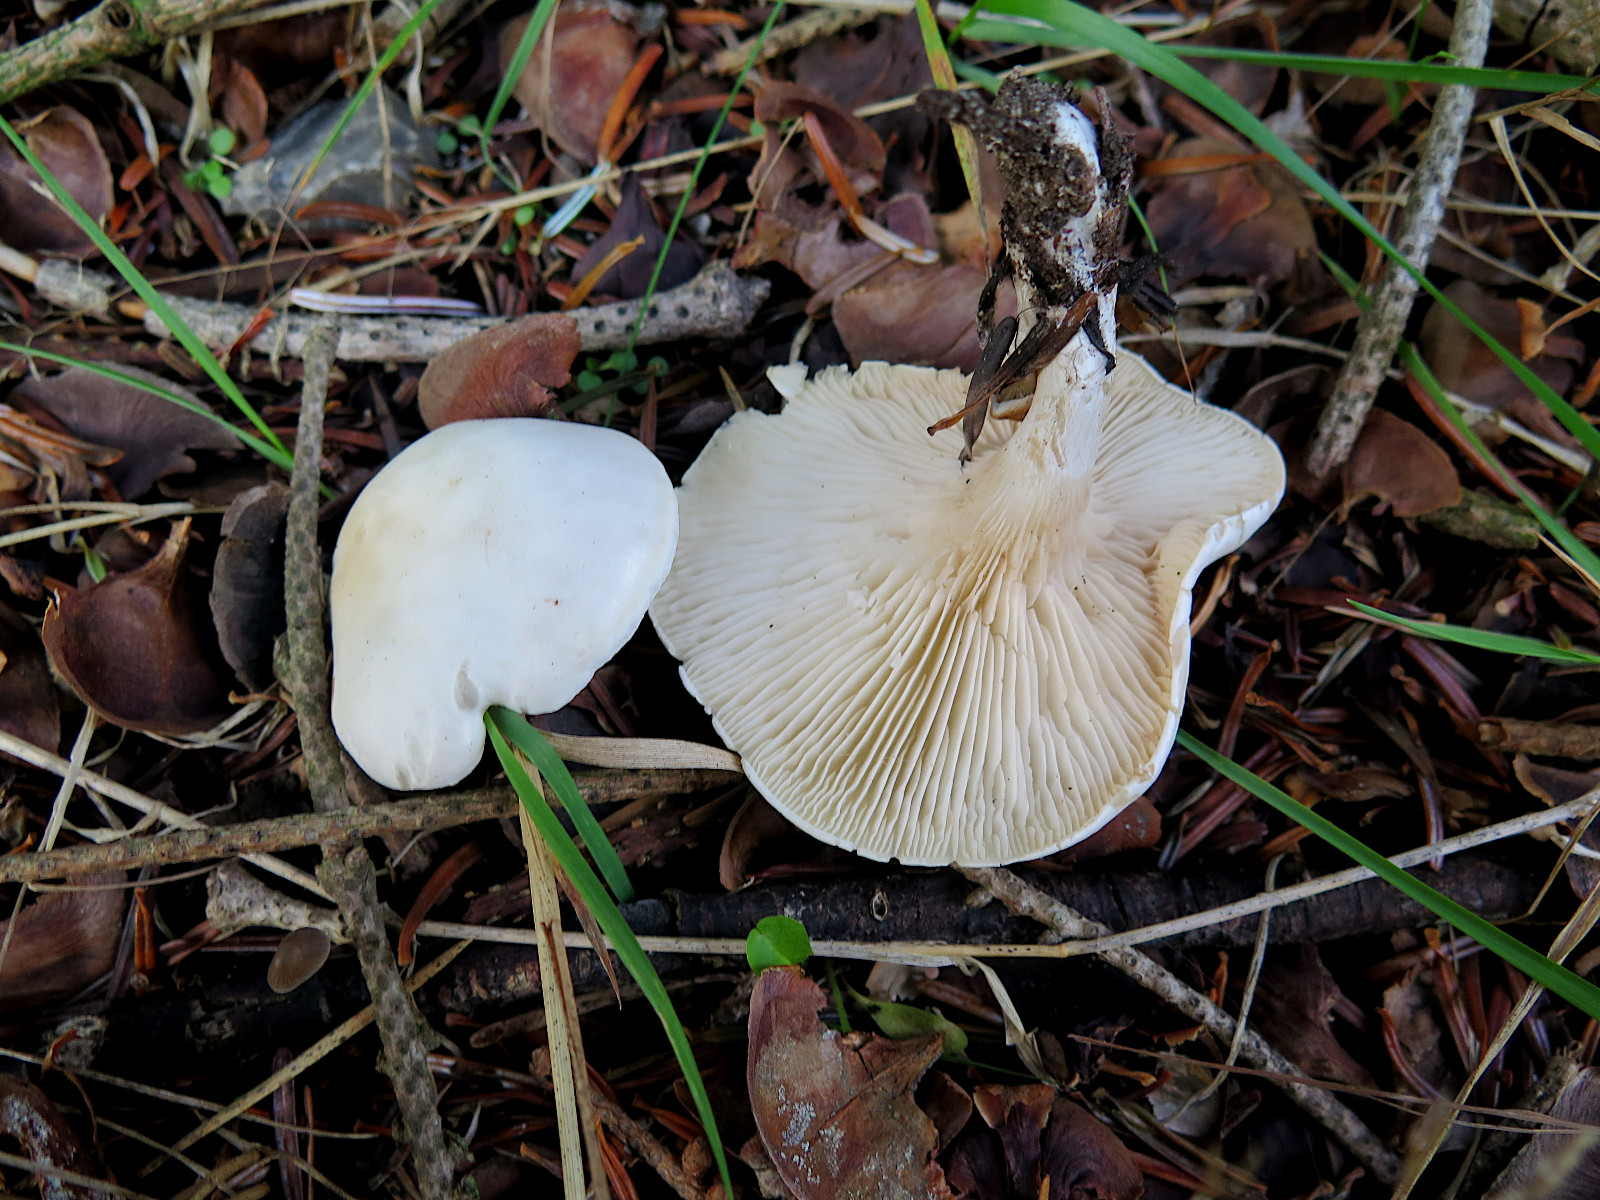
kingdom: Fungi
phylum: Basidiomycota
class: Agaricomycetes
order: Agaricales
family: Entolomataceae
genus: Clitopilus
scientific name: Clitopilus prunulus
